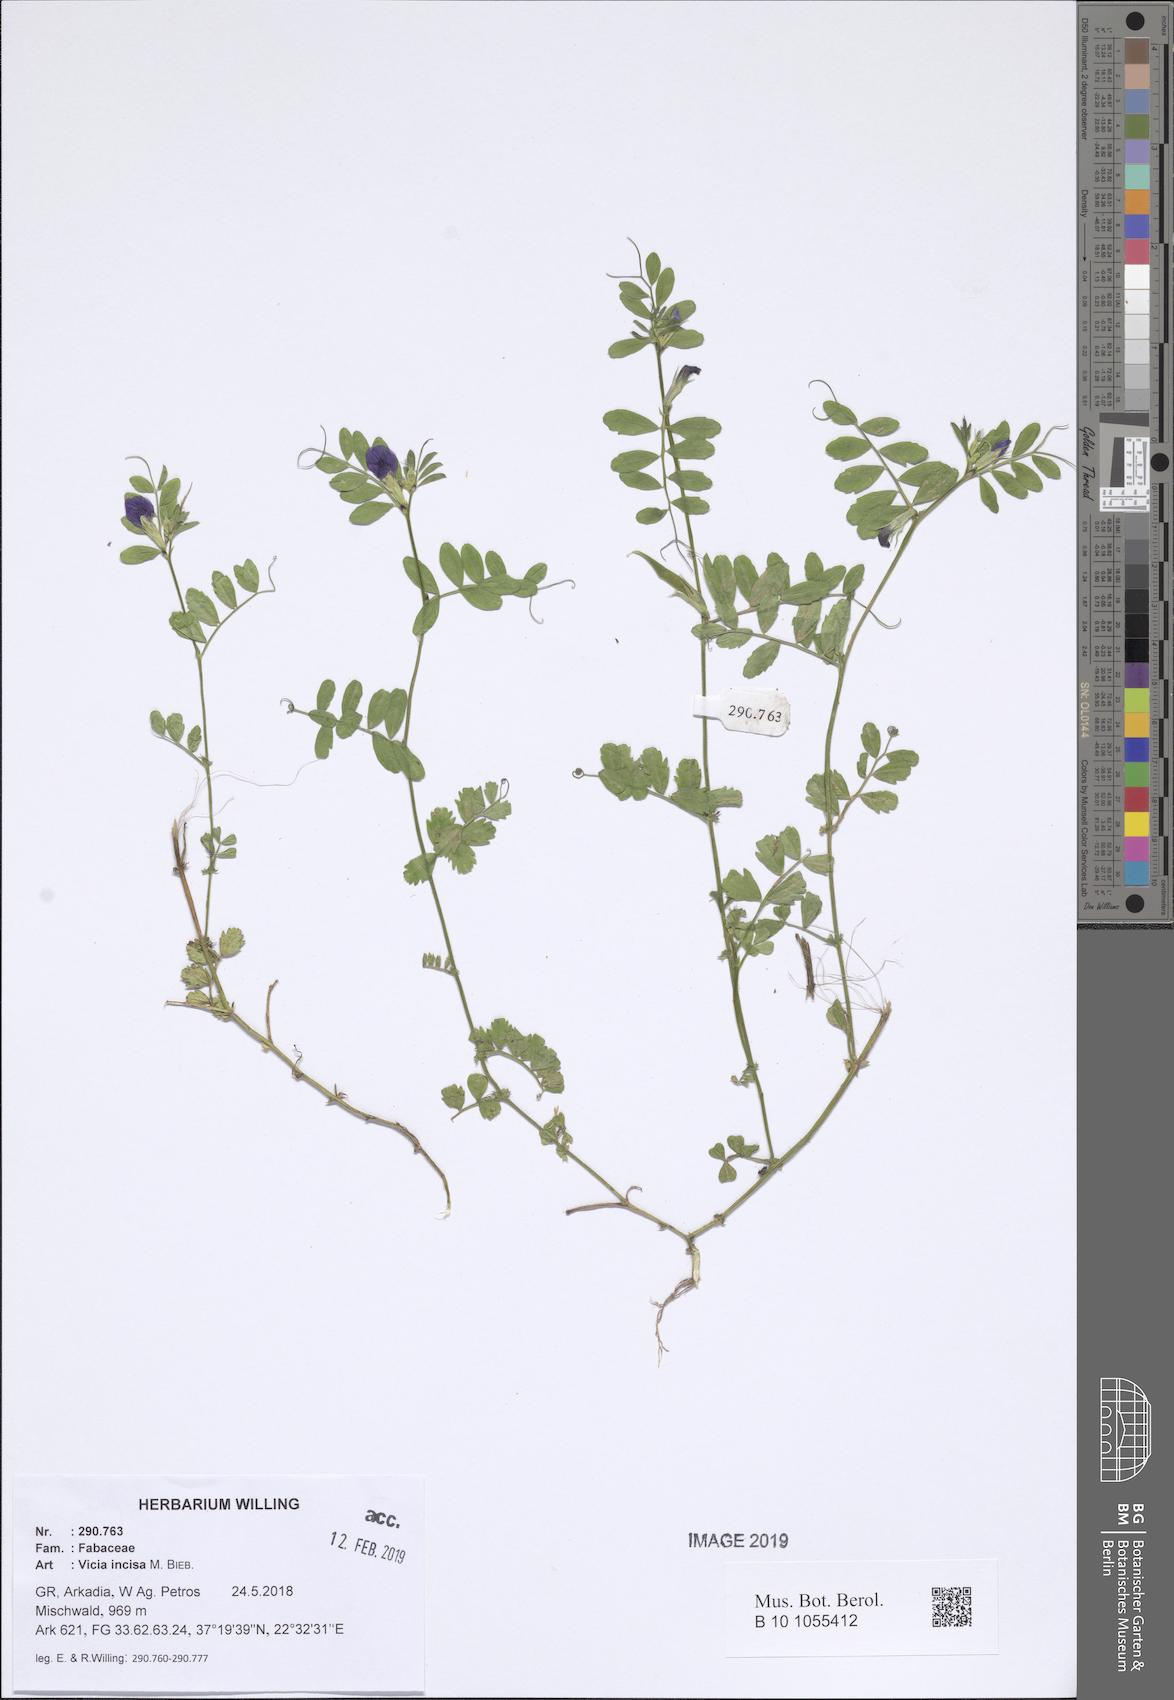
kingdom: Plantae
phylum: Tracheophyta
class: Magnoliopsida
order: Fabales
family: Fabaceae
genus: Vicia
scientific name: Vicia sativa
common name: Garden vetch
